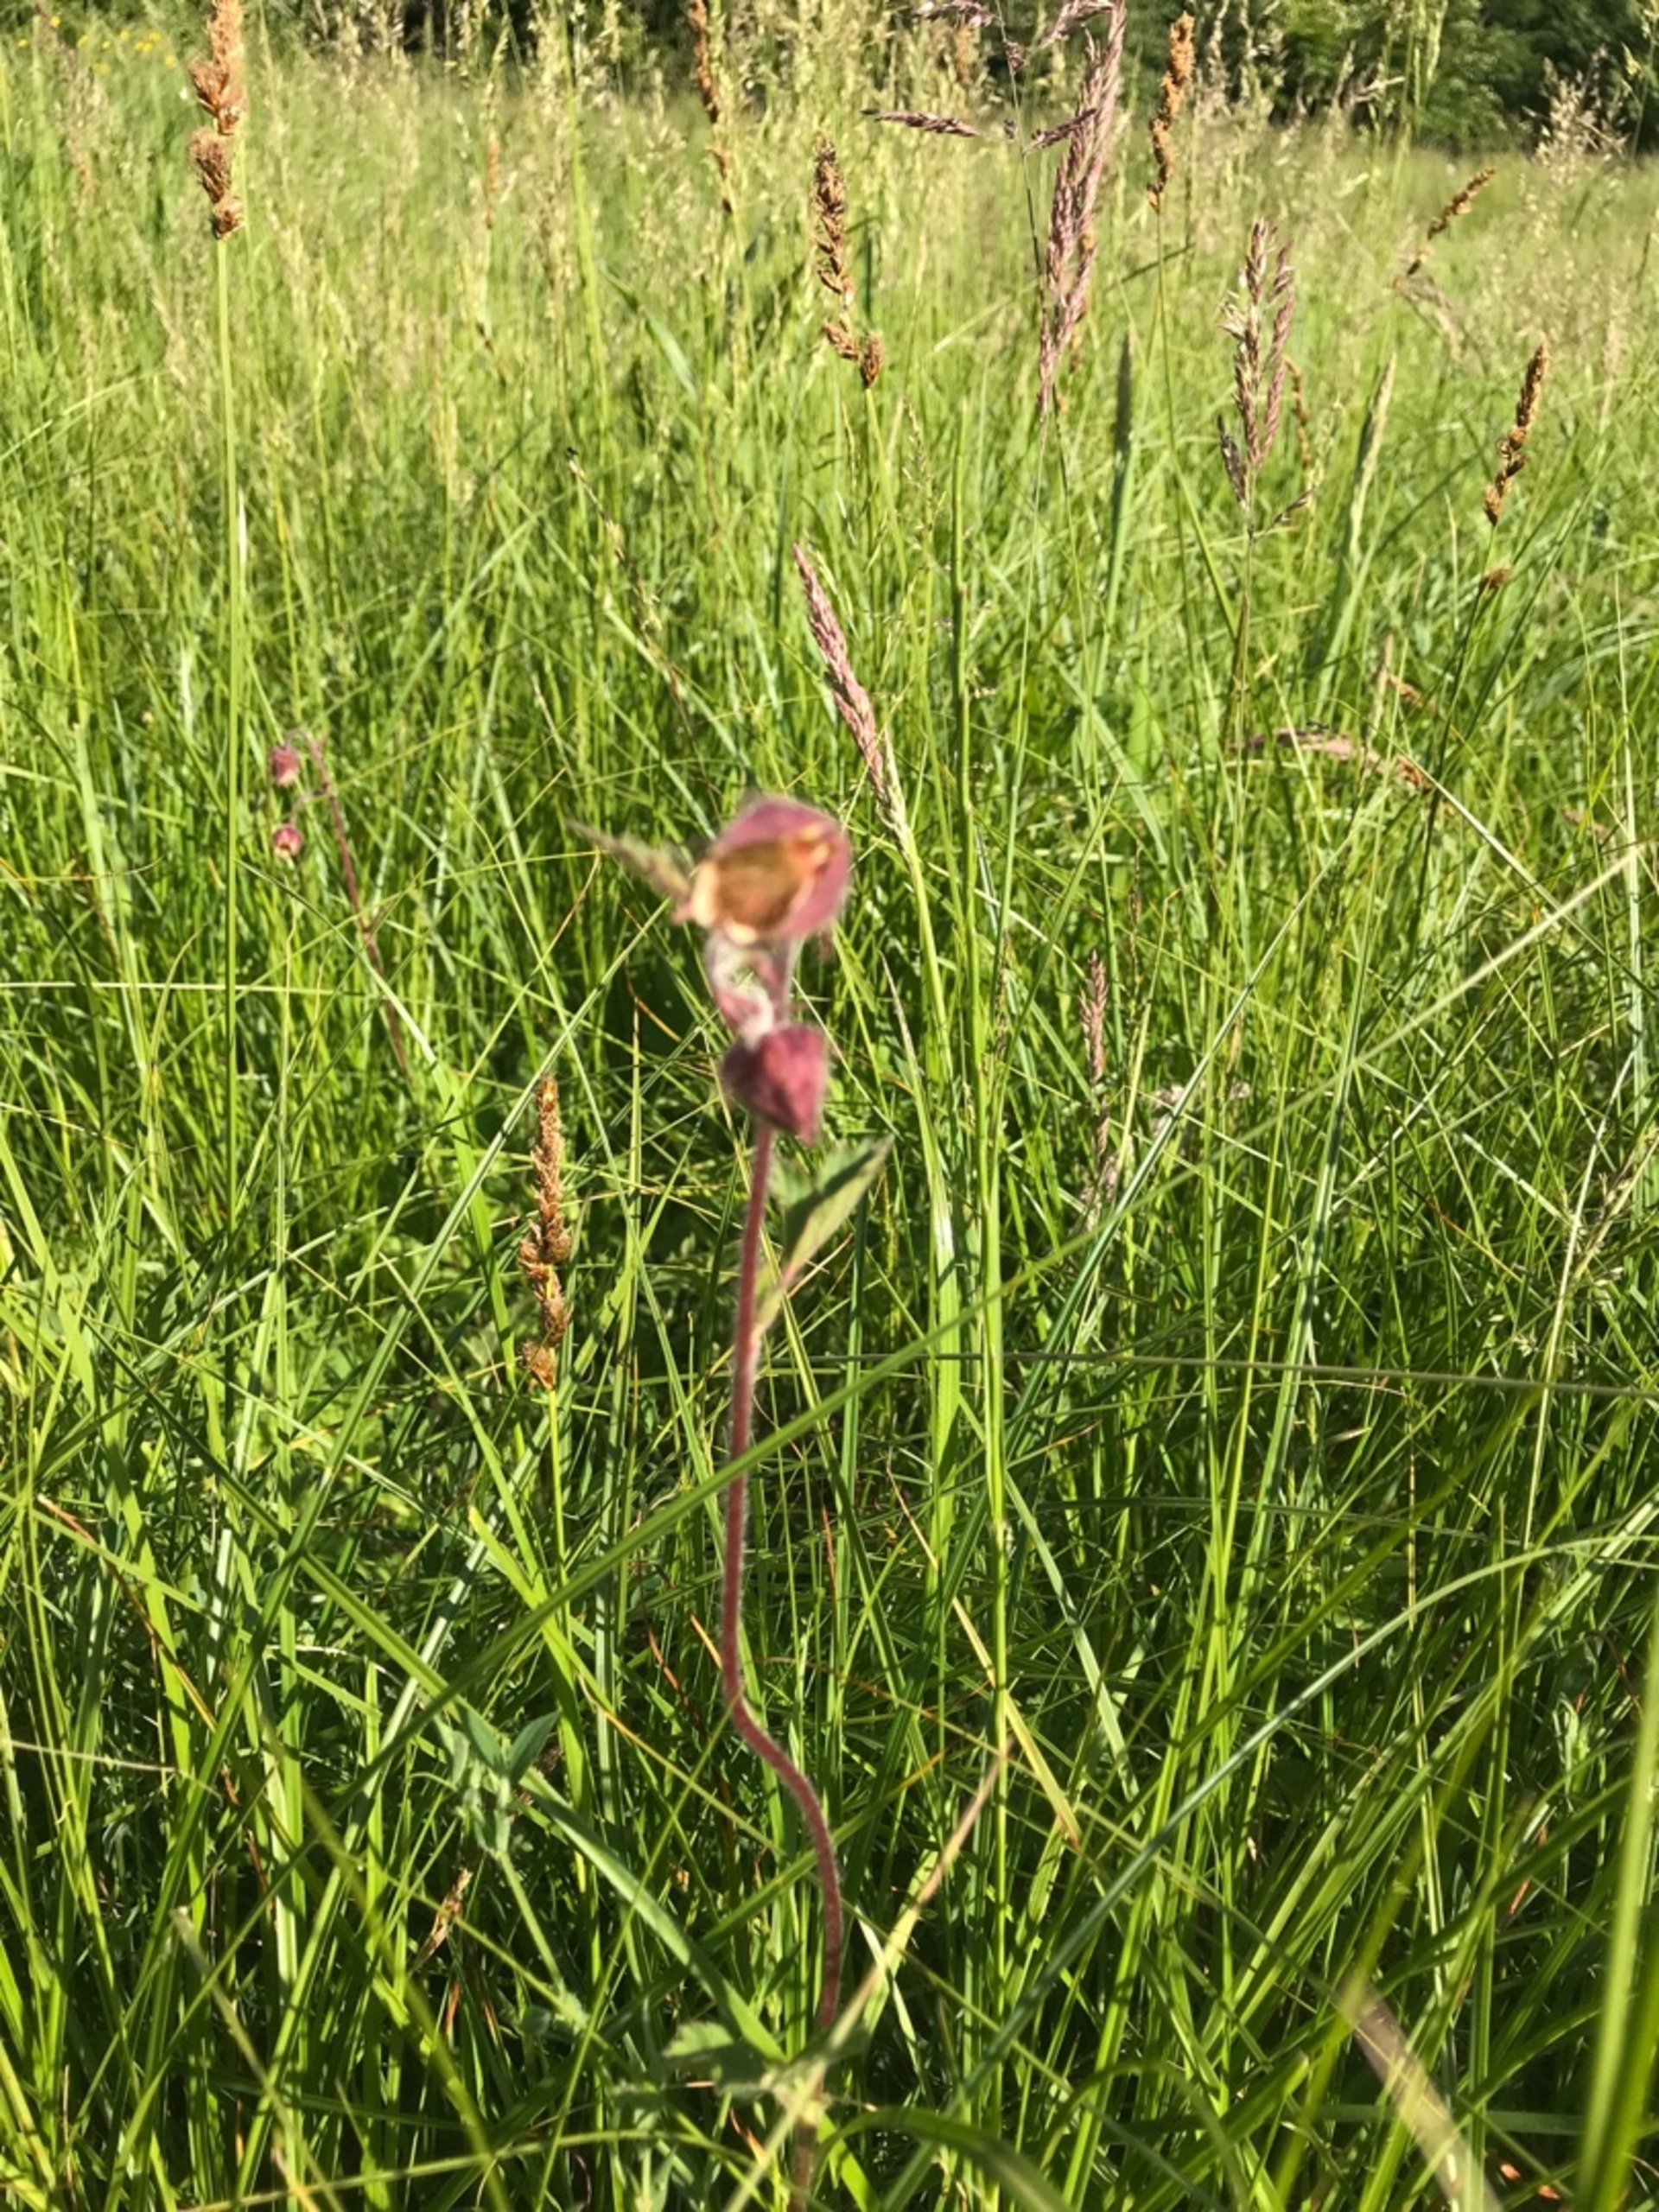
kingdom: Plantae
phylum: Tracheophyta
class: Magnoliopsida
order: Rosales
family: Rosaceae
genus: Geum
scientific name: Geum rivale
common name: Eng-nellikerod
